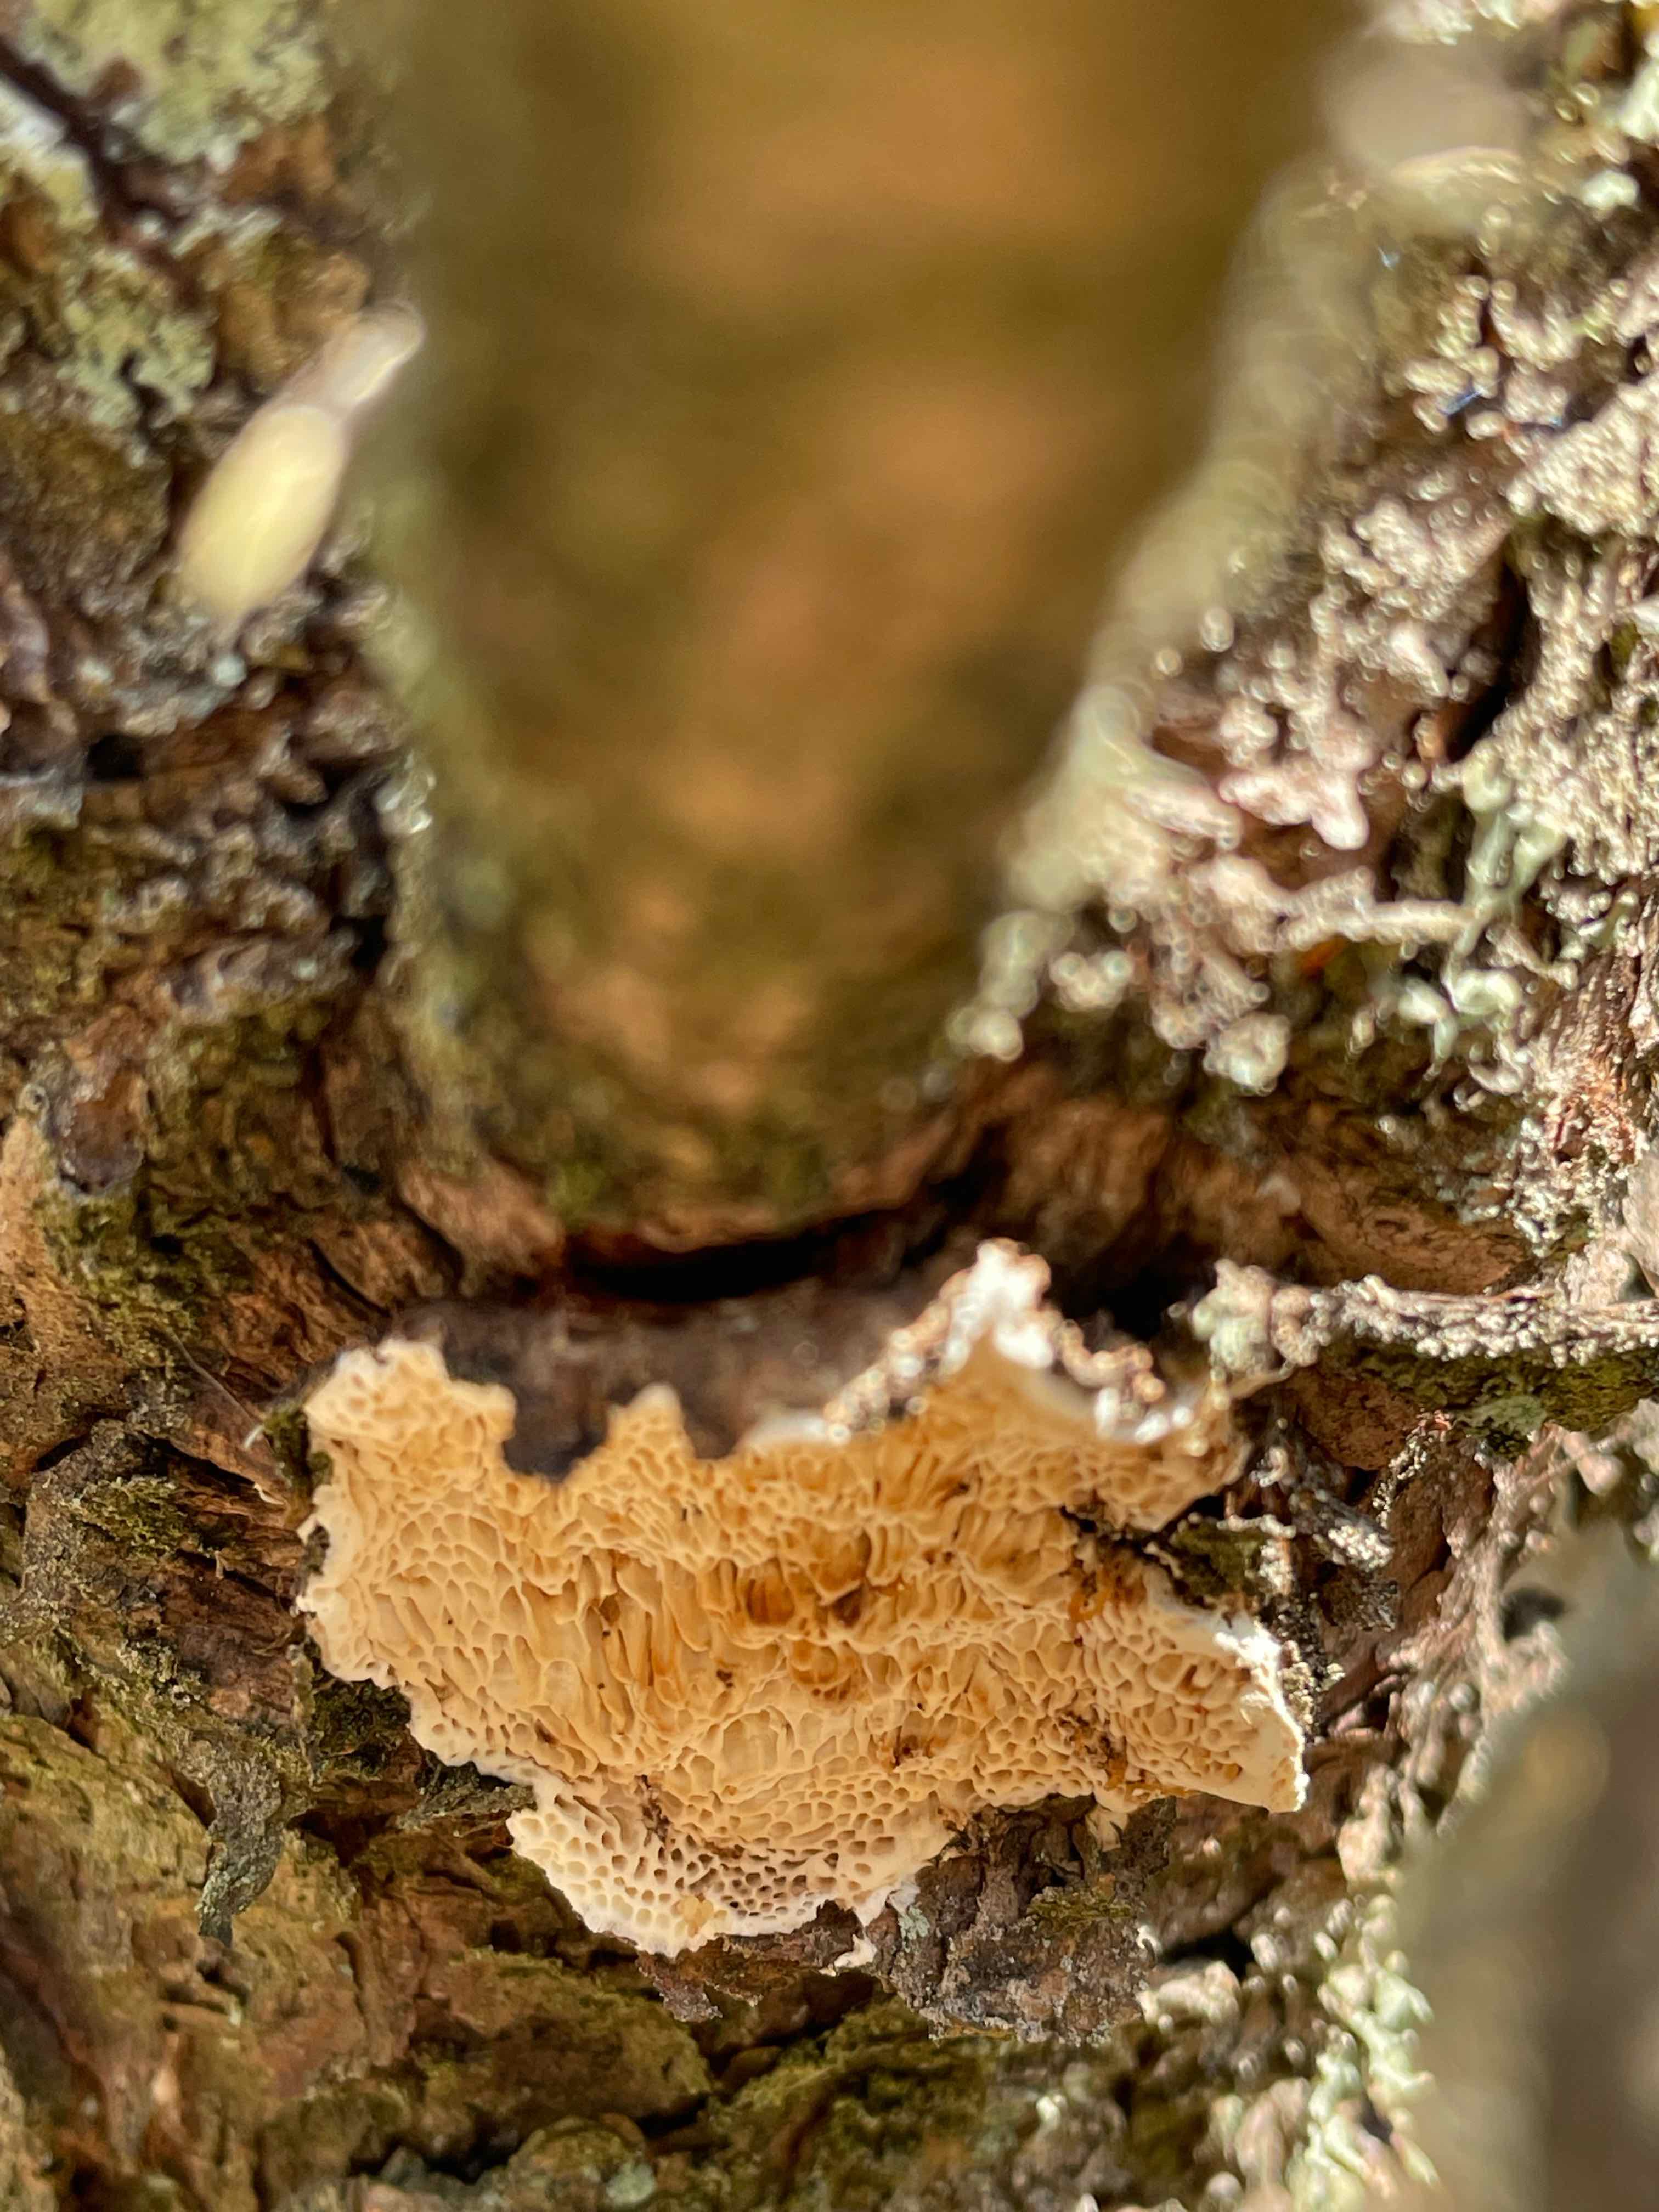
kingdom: Fungi
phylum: Basidiomycota
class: Agaricomycetes
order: Polyporales
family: Fomitopsidaceae
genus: Fomitopsis
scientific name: Fomitopsis
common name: fyrre-skiveporesvamp
